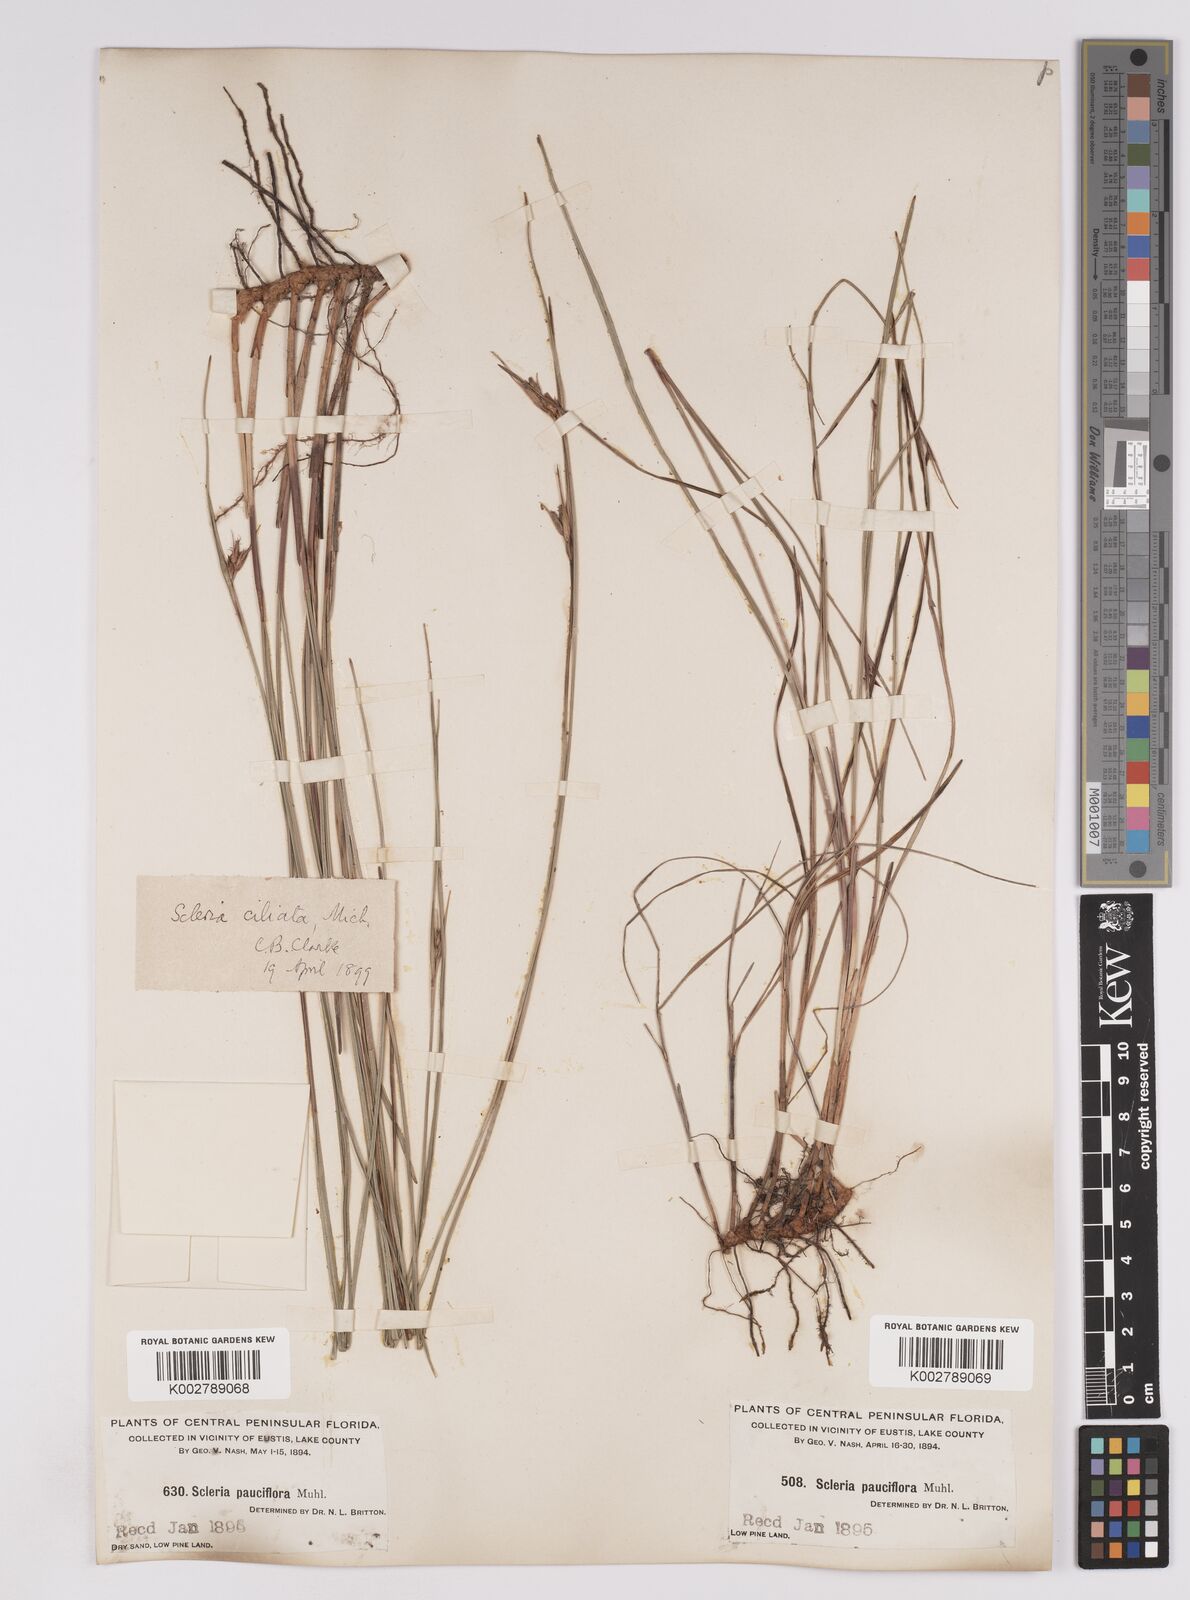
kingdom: Plantae
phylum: Tracheophyta
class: Liliopsida
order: Poales
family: Cyperaceae
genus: Scleria
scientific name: Scleria ciliata
